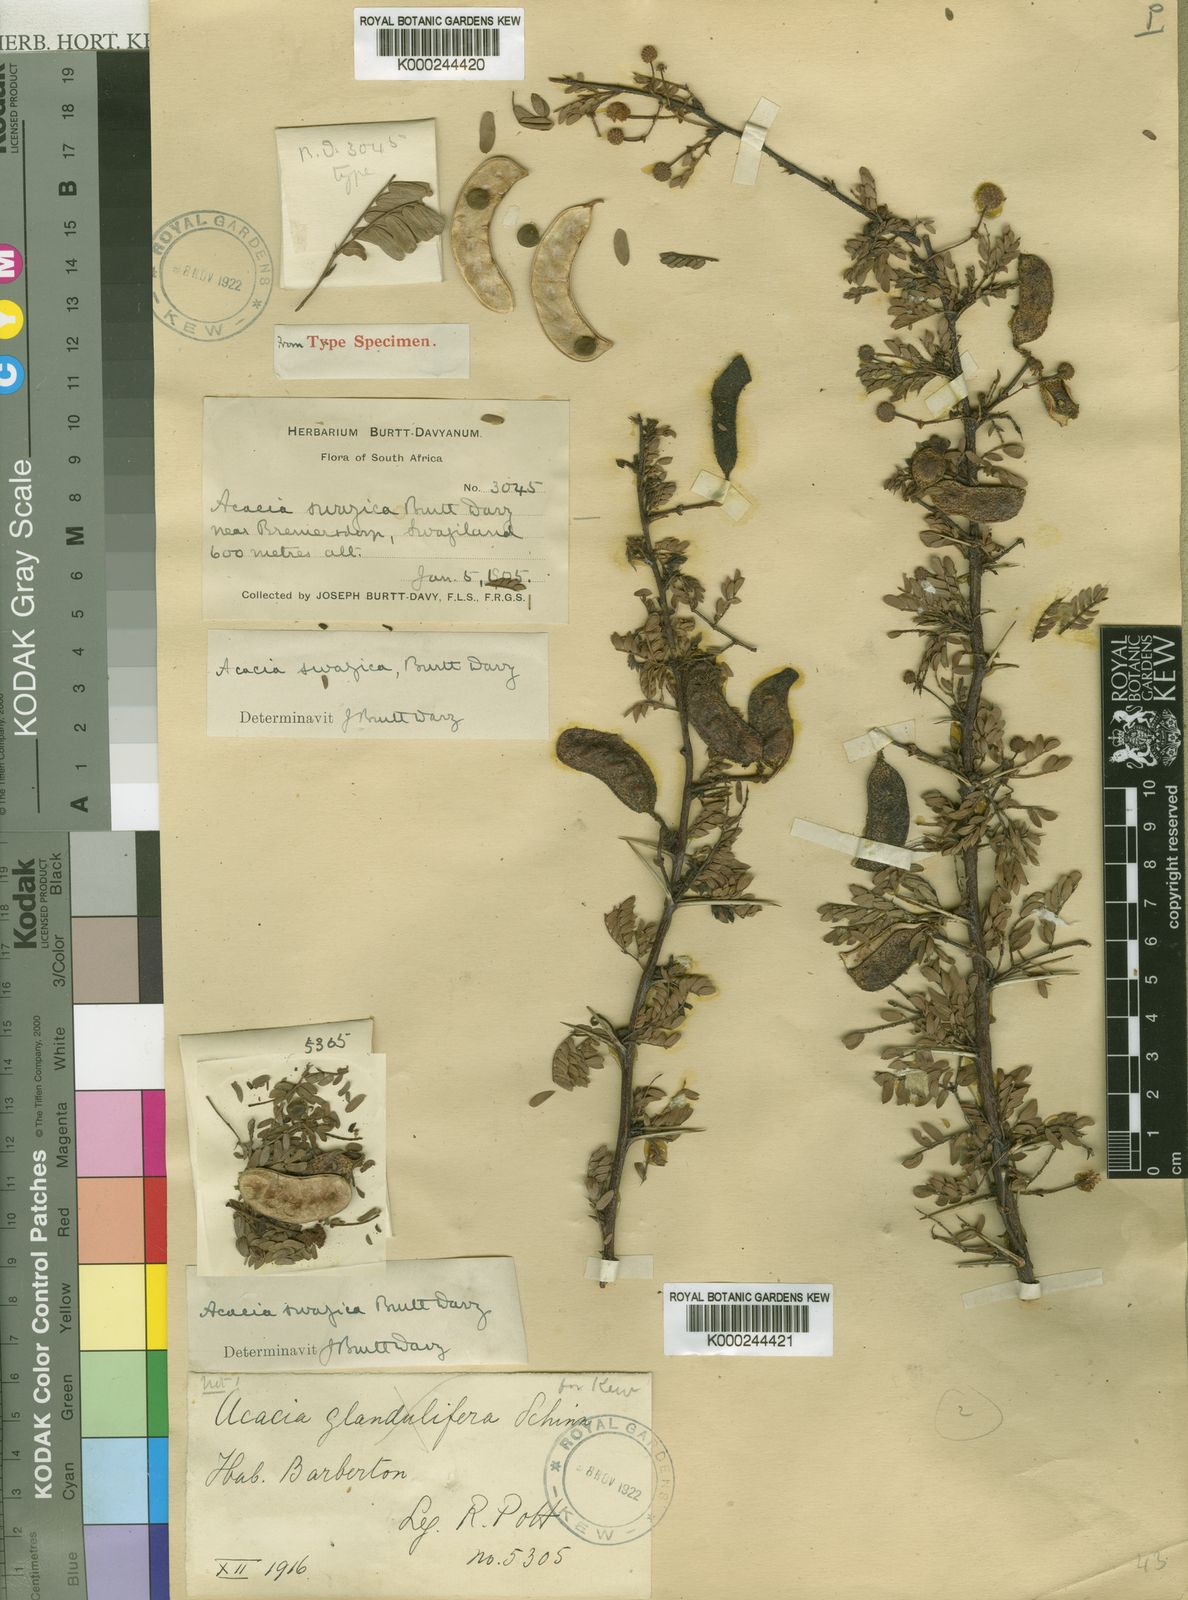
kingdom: Plantae
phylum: Tracheophyta
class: Magnoliopsida
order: Fabales
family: Fabaceae
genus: Vachellia
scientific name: Vachellia swazica
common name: Swazi thorn
